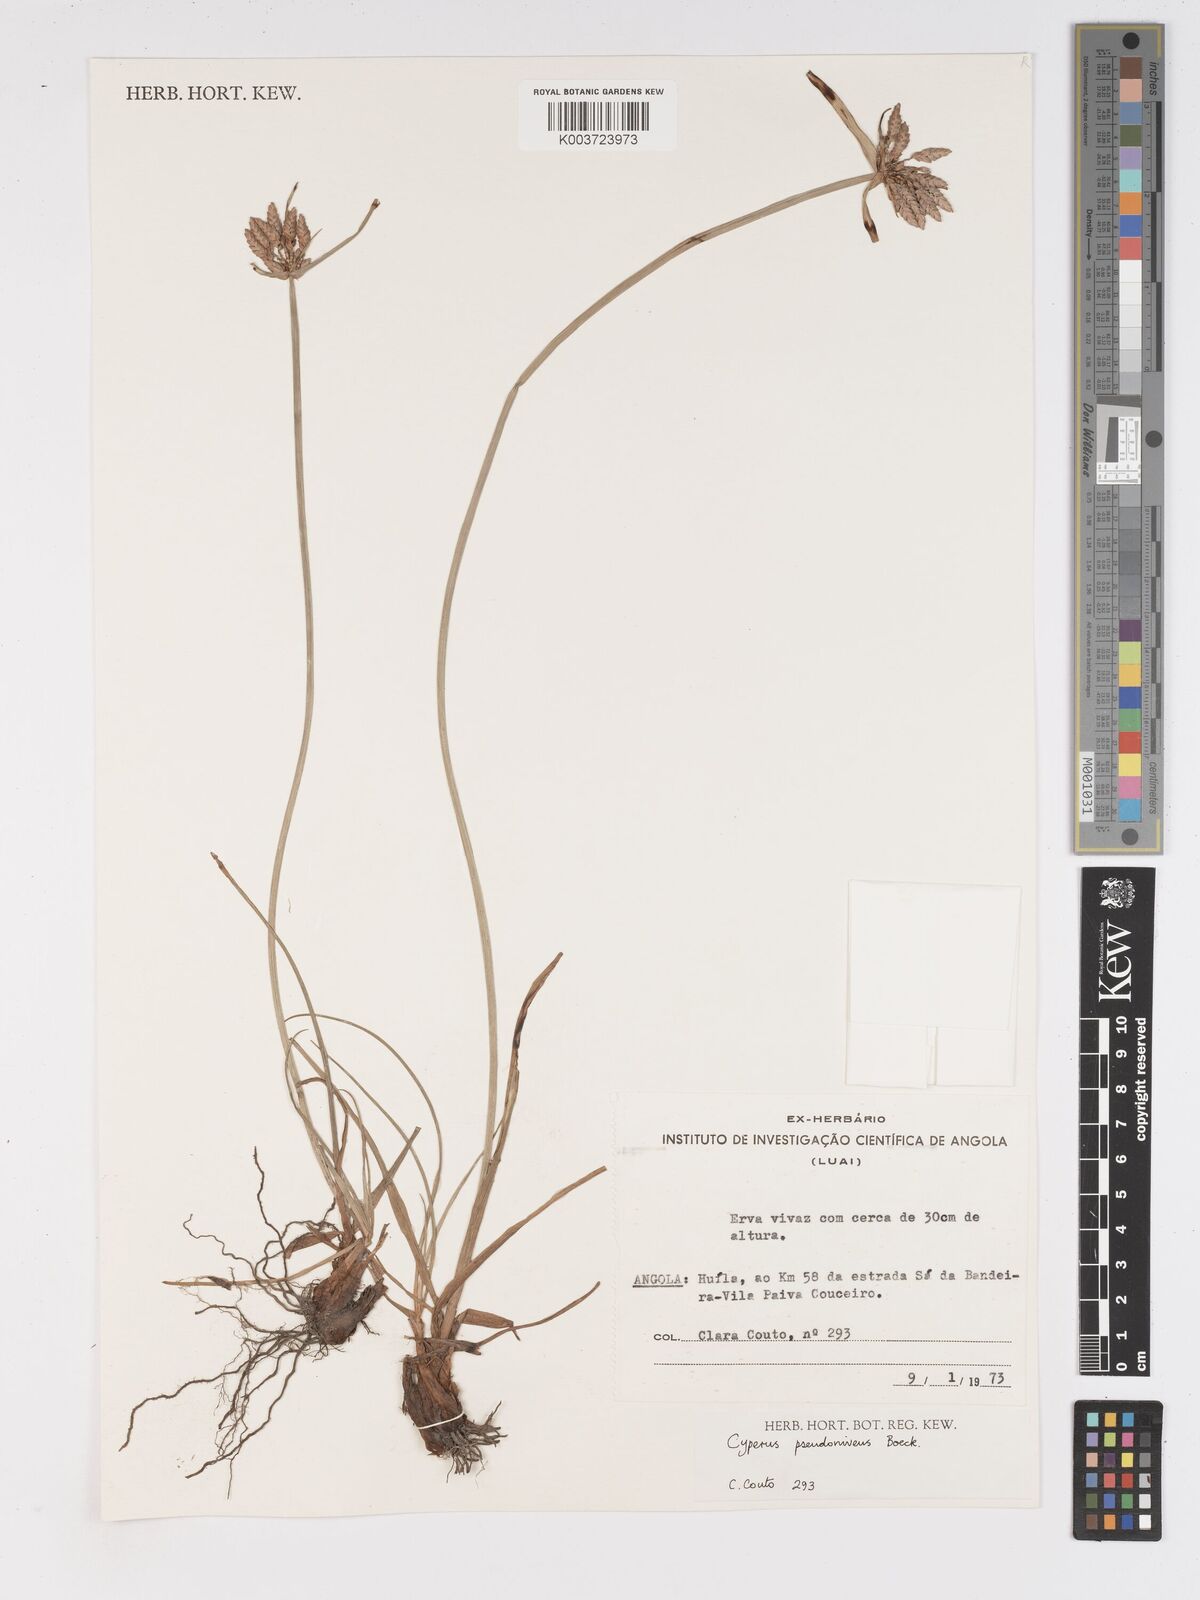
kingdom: Plantae
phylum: Tracheophyta
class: Liliopsida
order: Poales
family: Cyperaceae
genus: Cyperus
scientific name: Cyperus margaritaceus
